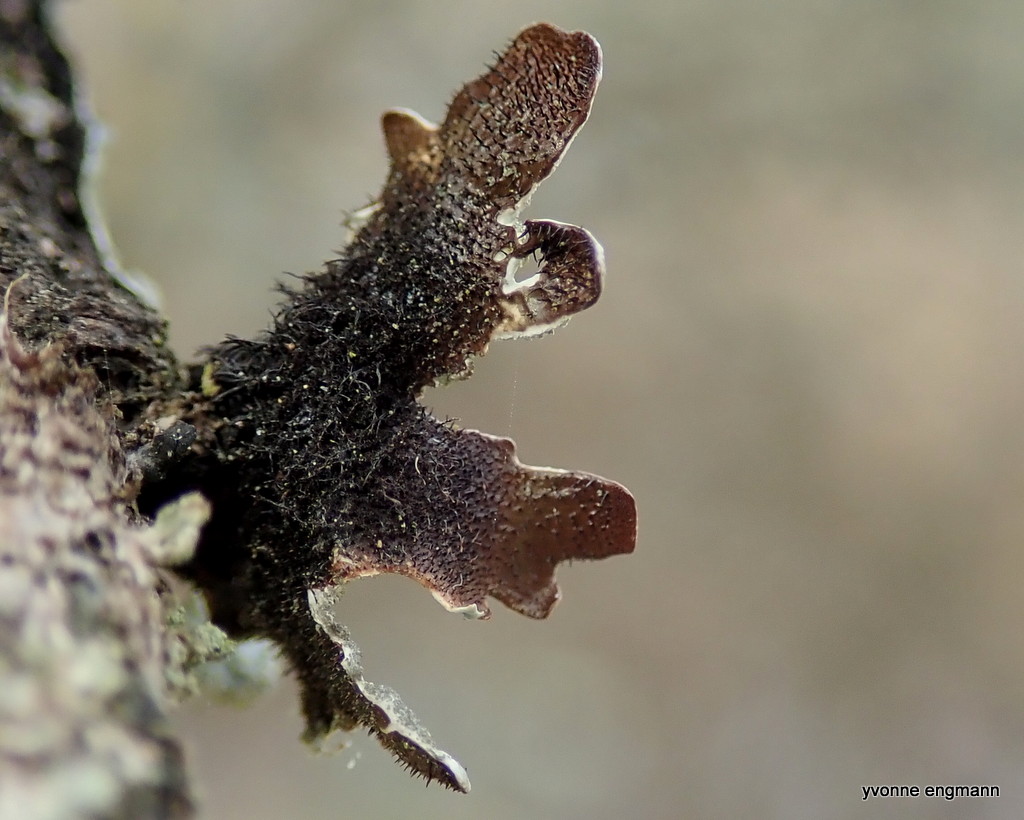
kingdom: Fungi
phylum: Ascomycota
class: Lecanoromycetes
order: Lecanorales
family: Parmeliaceae
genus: Parmelia
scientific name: Parmelia sulcata
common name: rynket skållav
